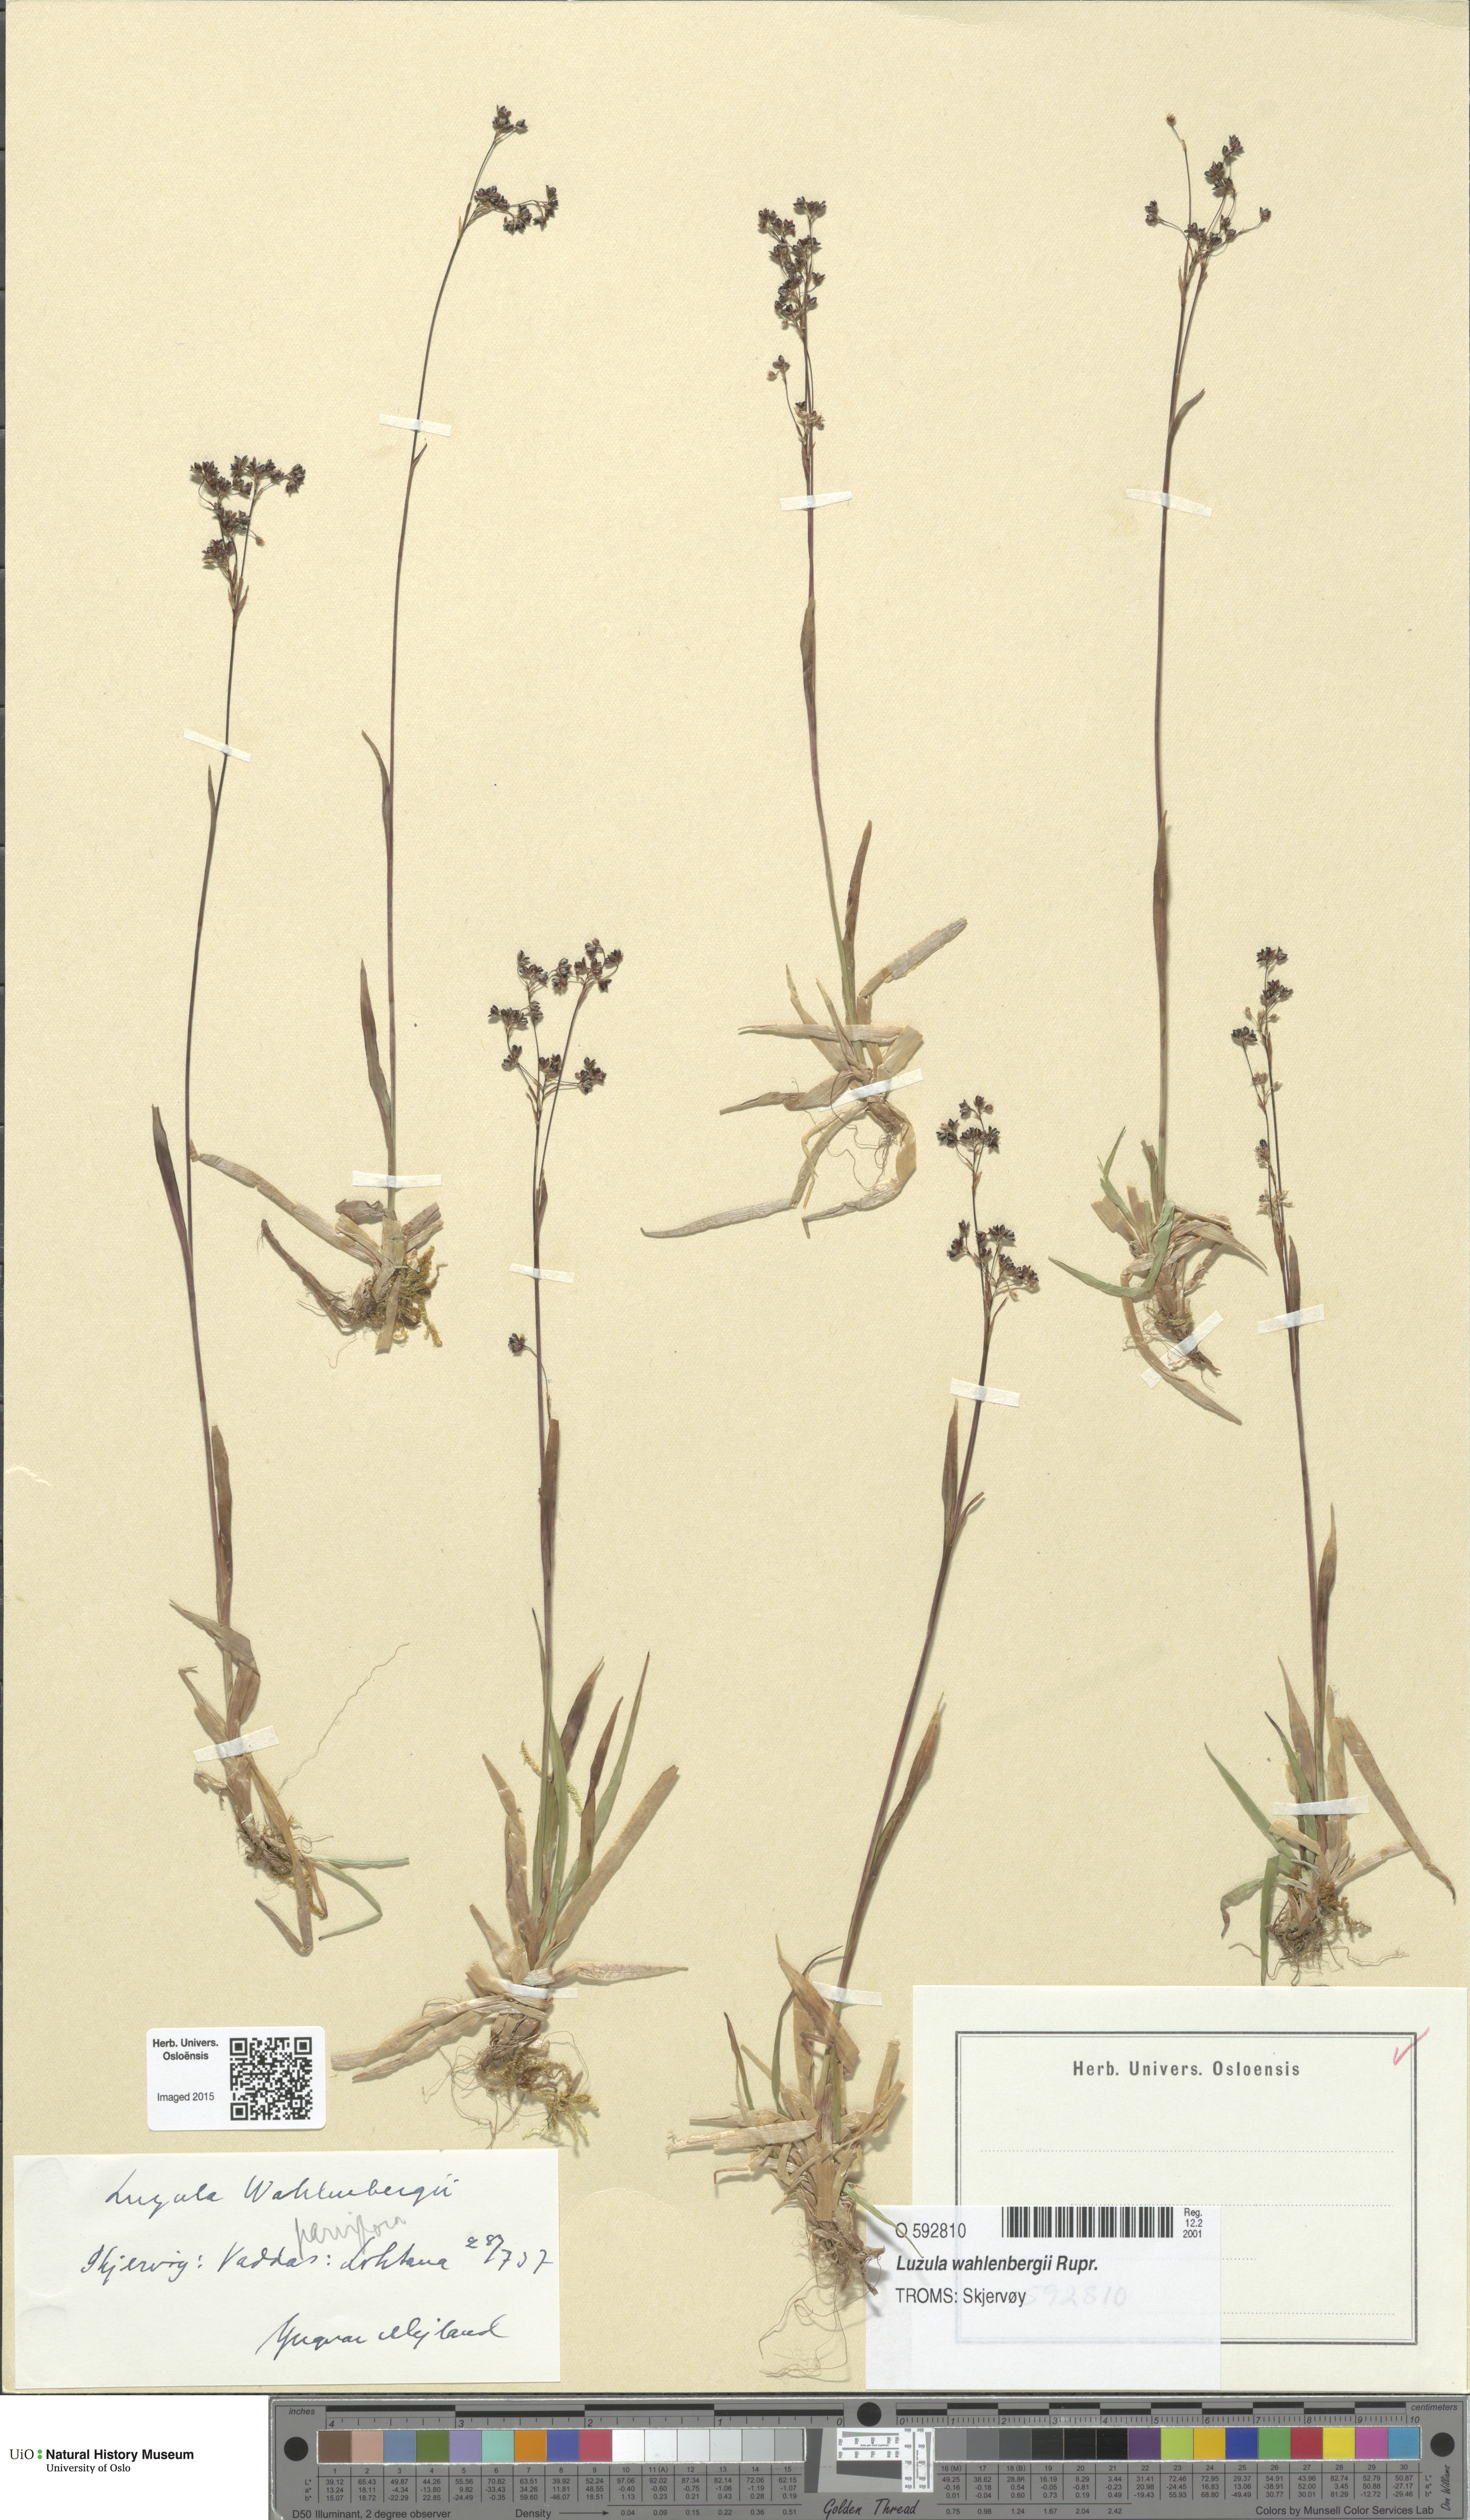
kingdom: Plantae
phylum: Tracheophyta
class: Liliopsida
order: Poales
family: Juncaceae
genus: Luzula
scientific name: Luzula wahlenbergii
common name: Wahlenberg's wood-rush
